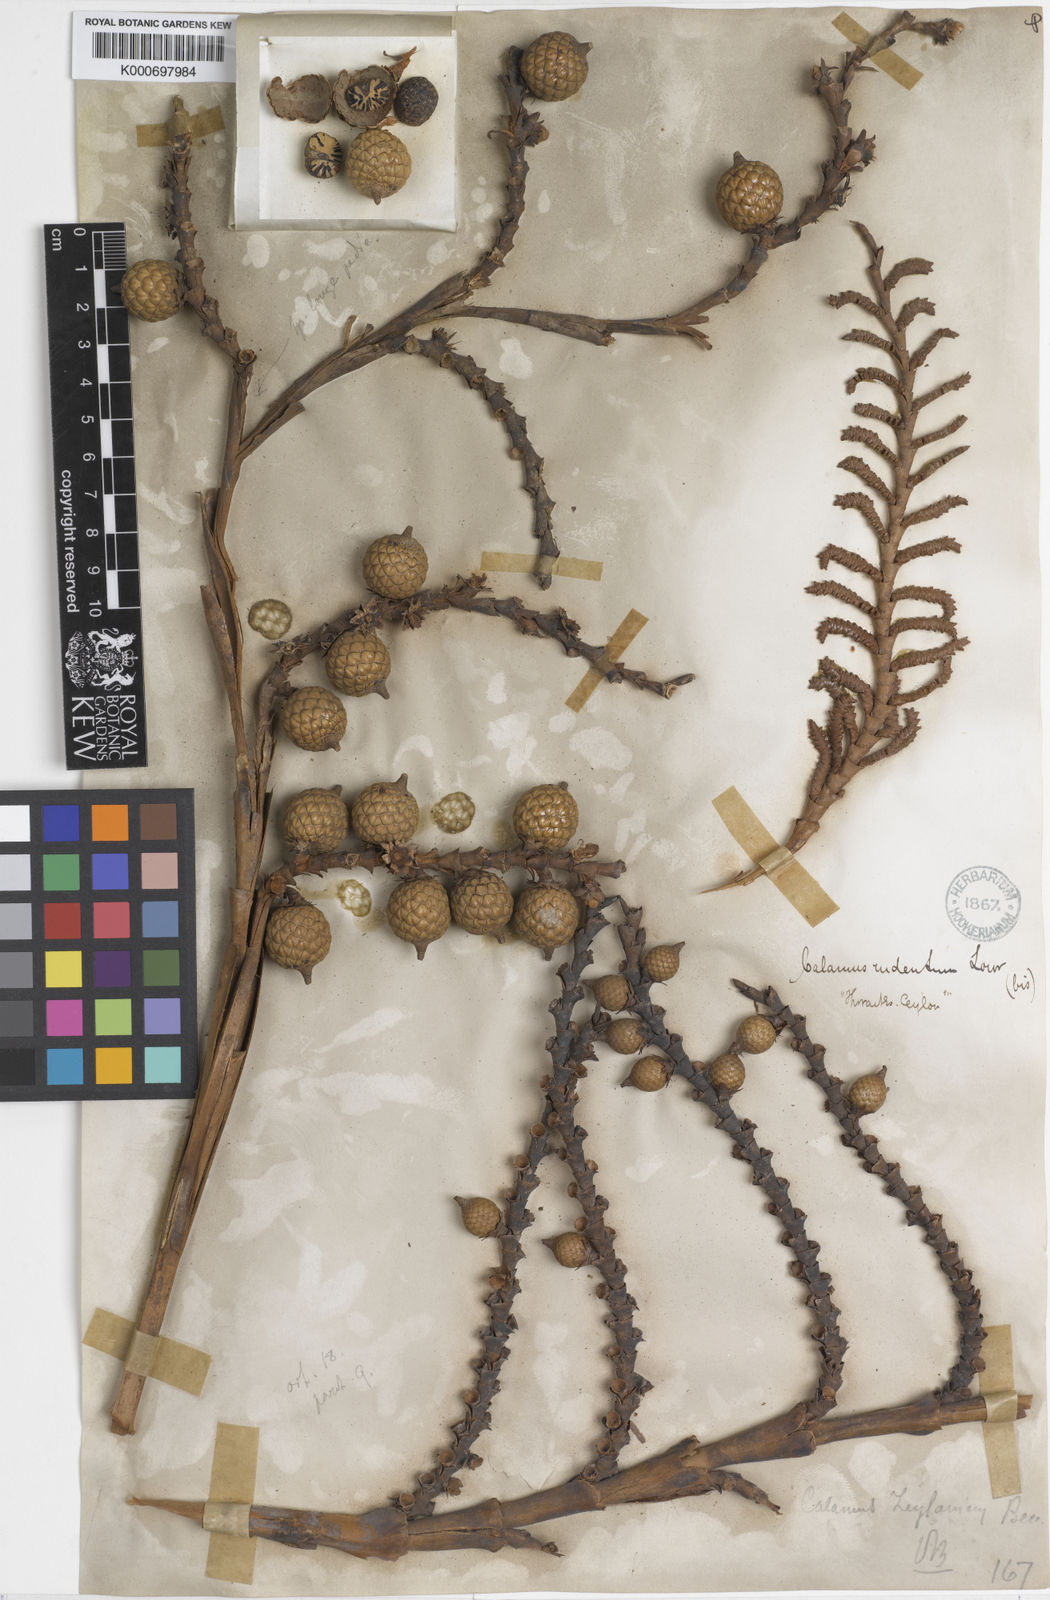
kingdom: Plantae
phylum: Tracheophyta
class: Liliopsida
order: Arecales
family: Arecaceae
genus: Calamus
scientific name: Calamus zeylanicus
